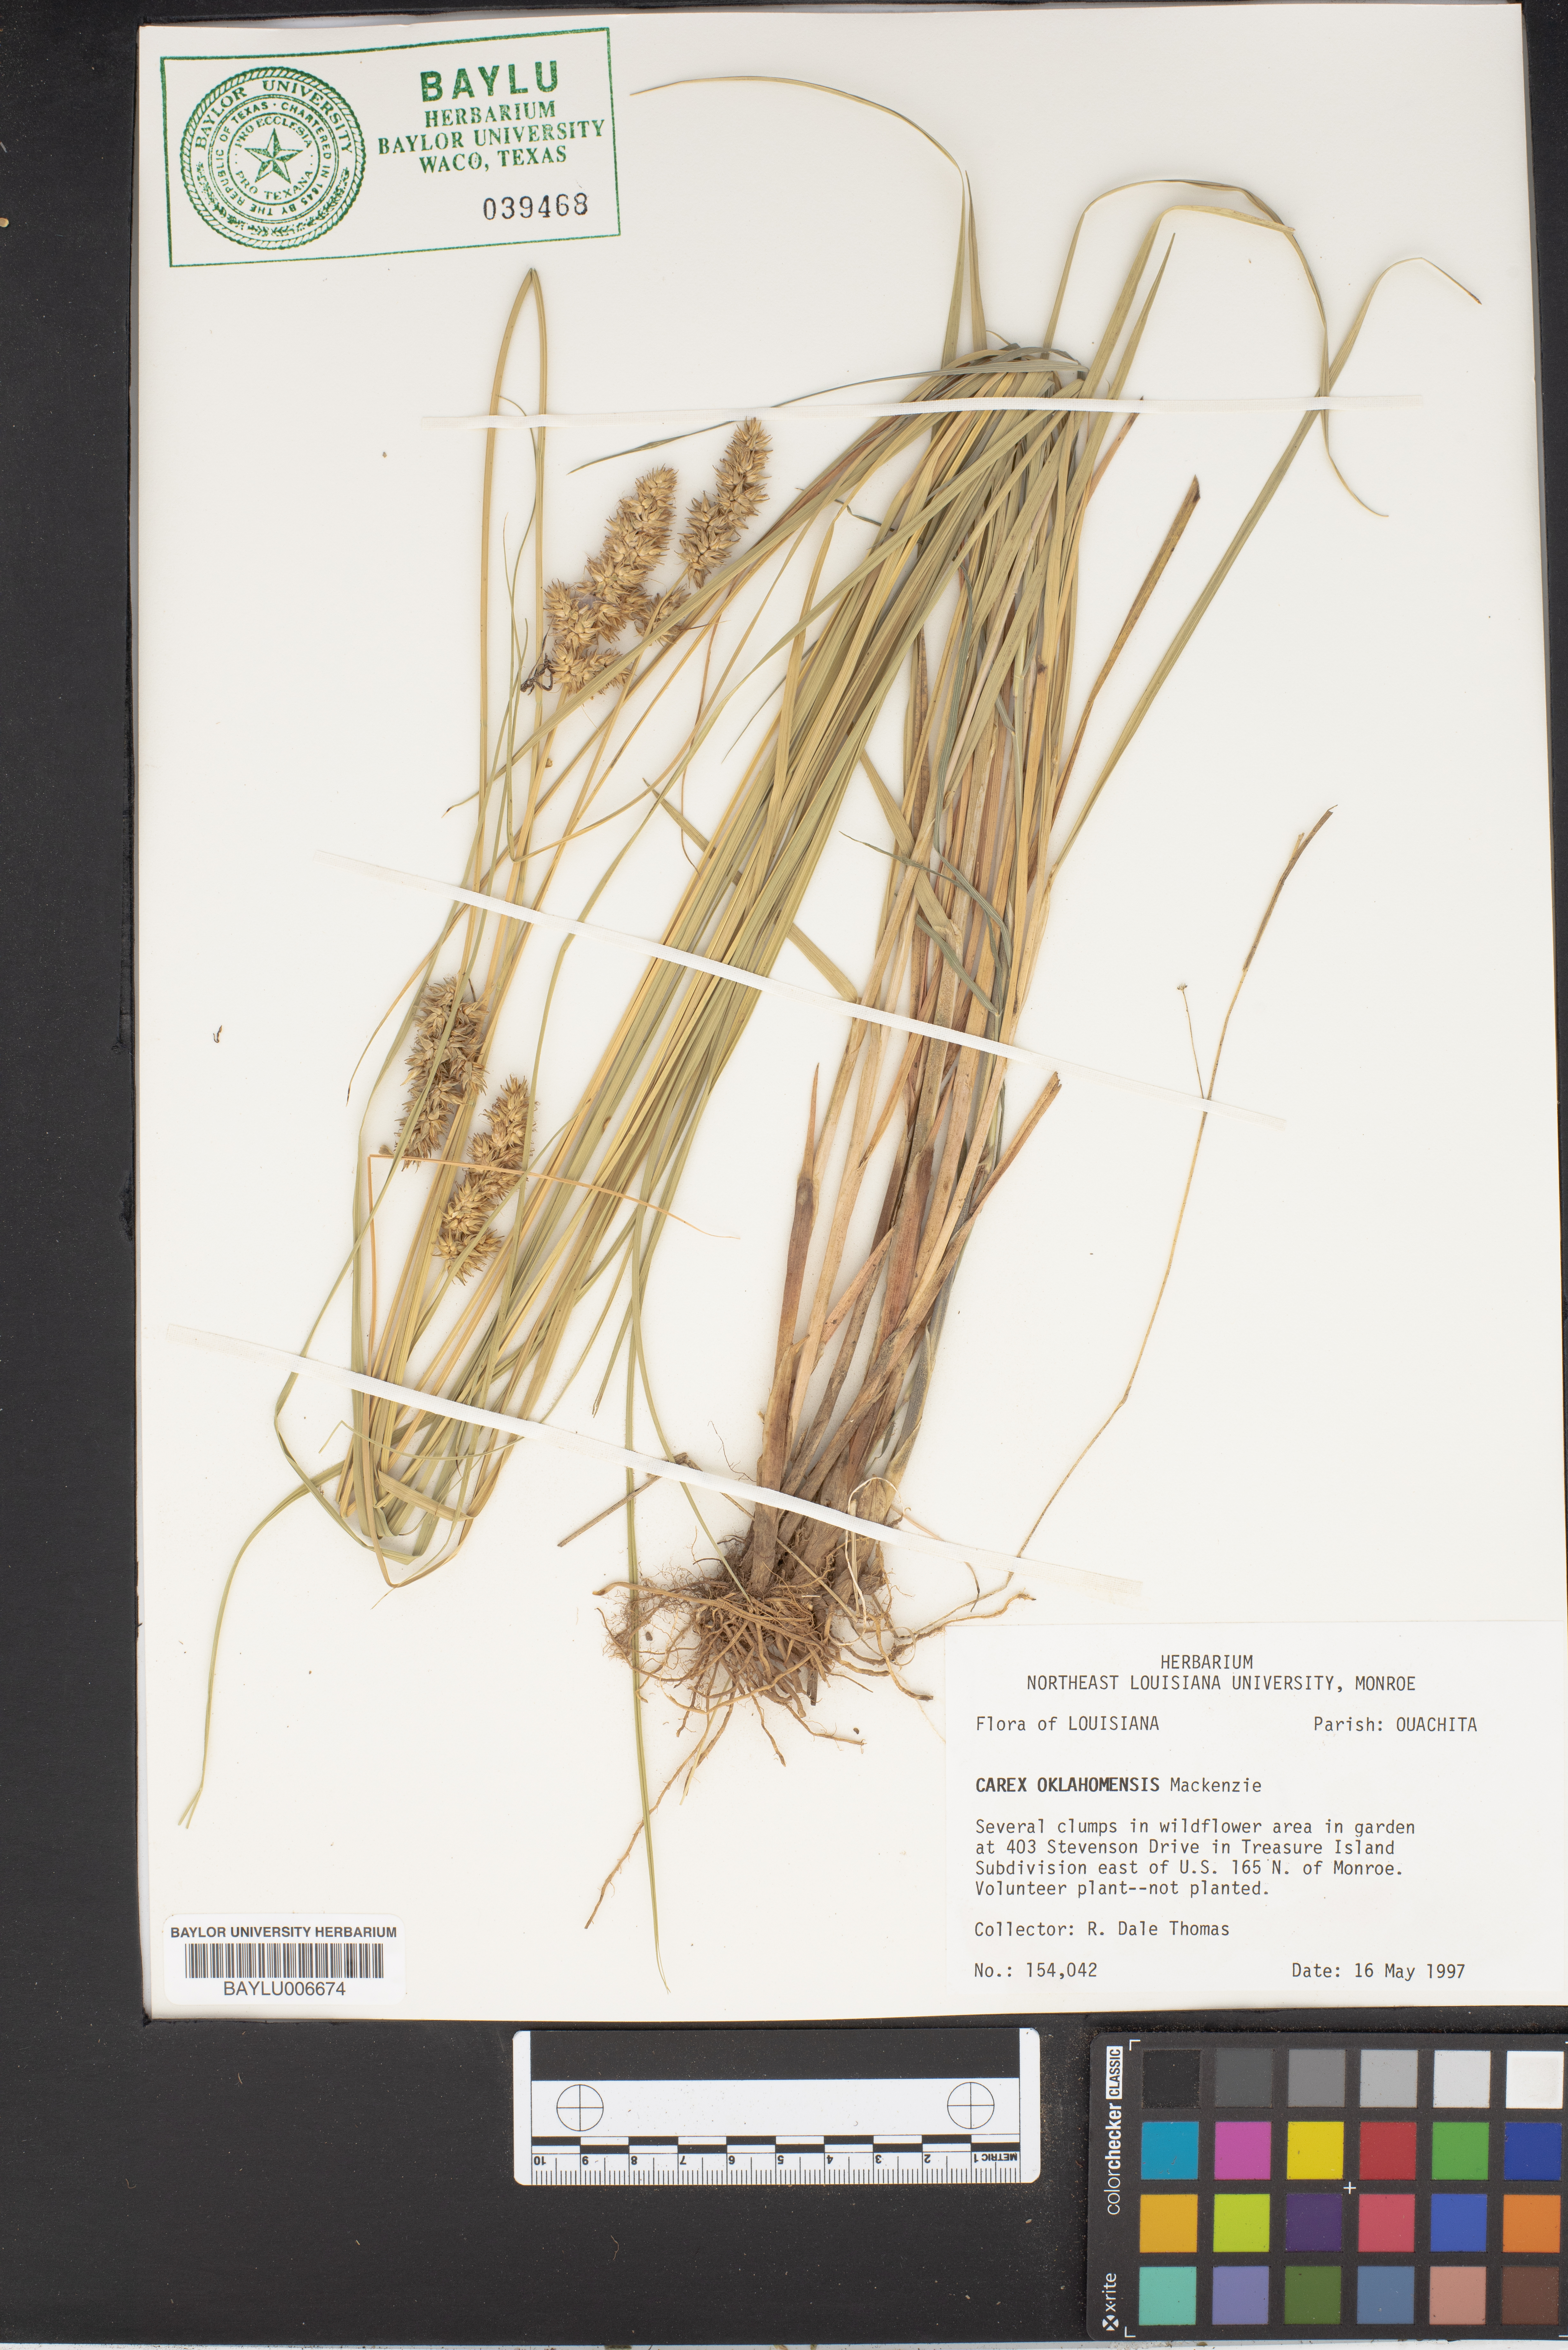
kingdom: Plantae
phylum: Tracheophyta
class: Liliopsida
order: Poales
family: Cyperaceae
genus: Carex
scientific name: Carex oklahomensis
